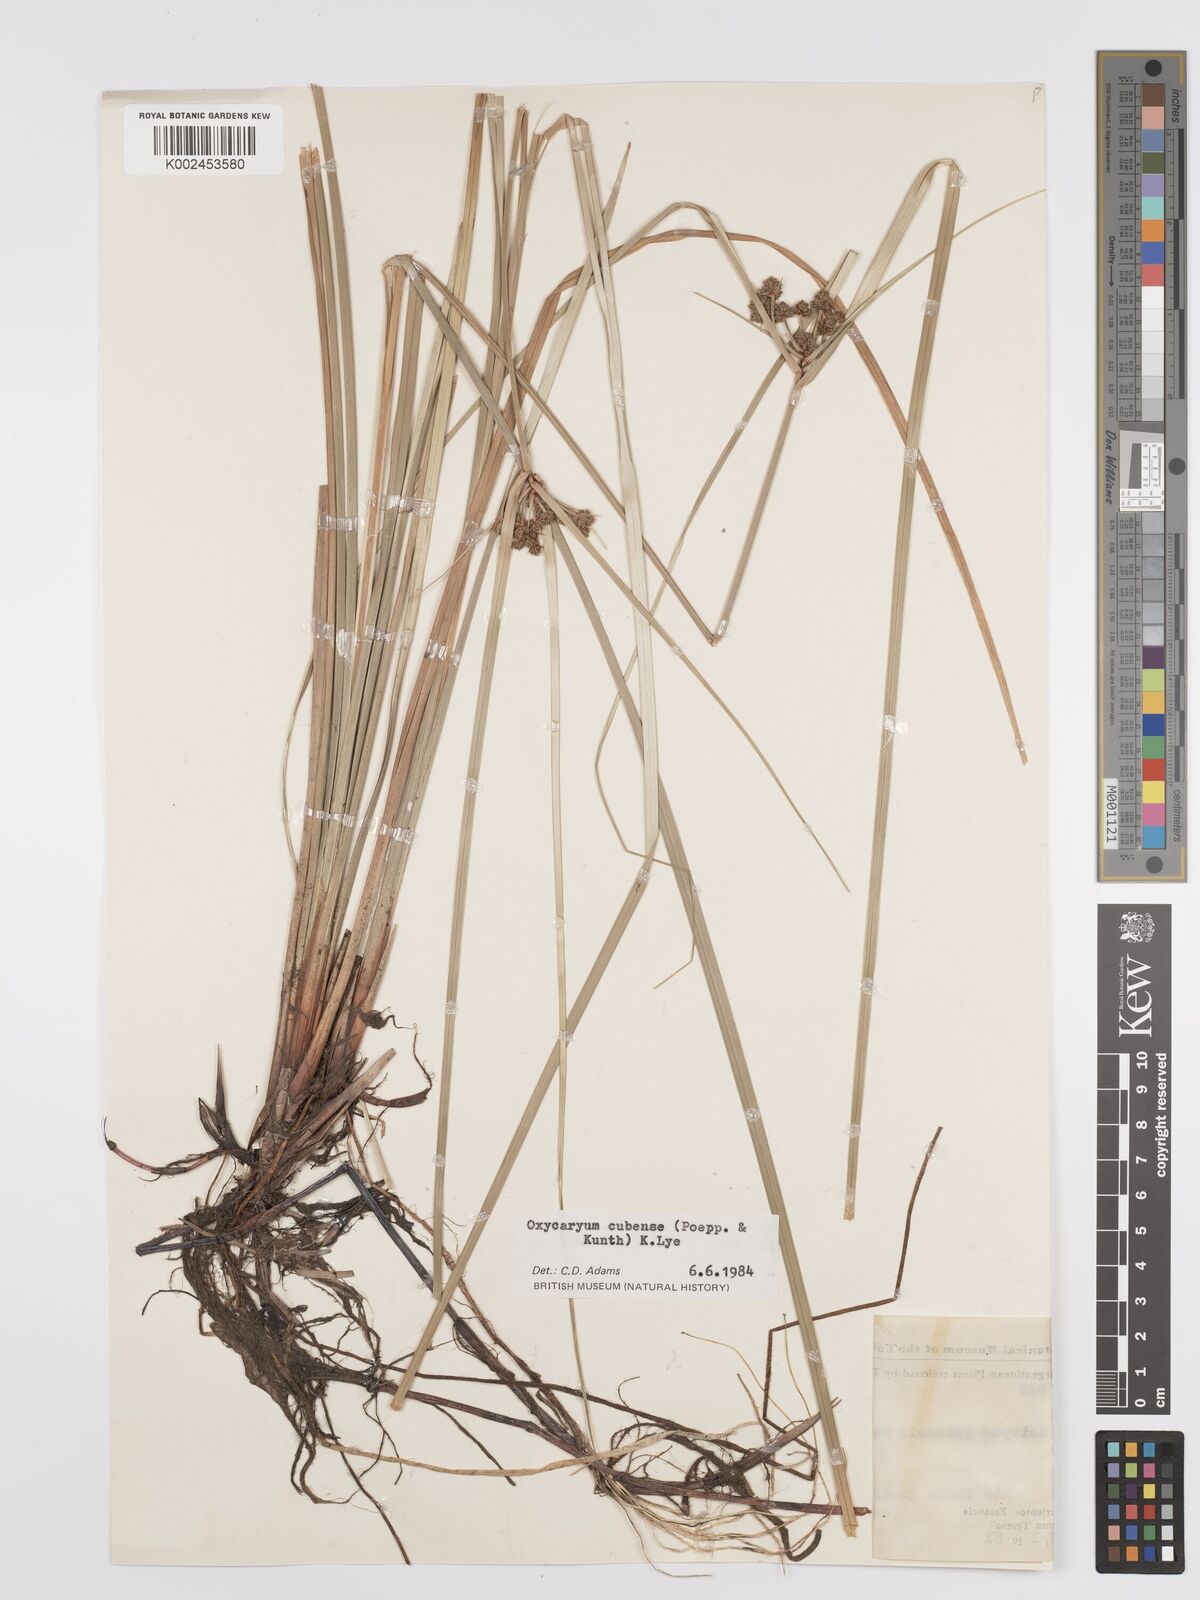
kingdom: Plantae
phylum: Tracheophyta
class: Liliopsida
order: Poales
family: Cyperaceae
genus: Cyperus
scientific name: Cyperus elegans
